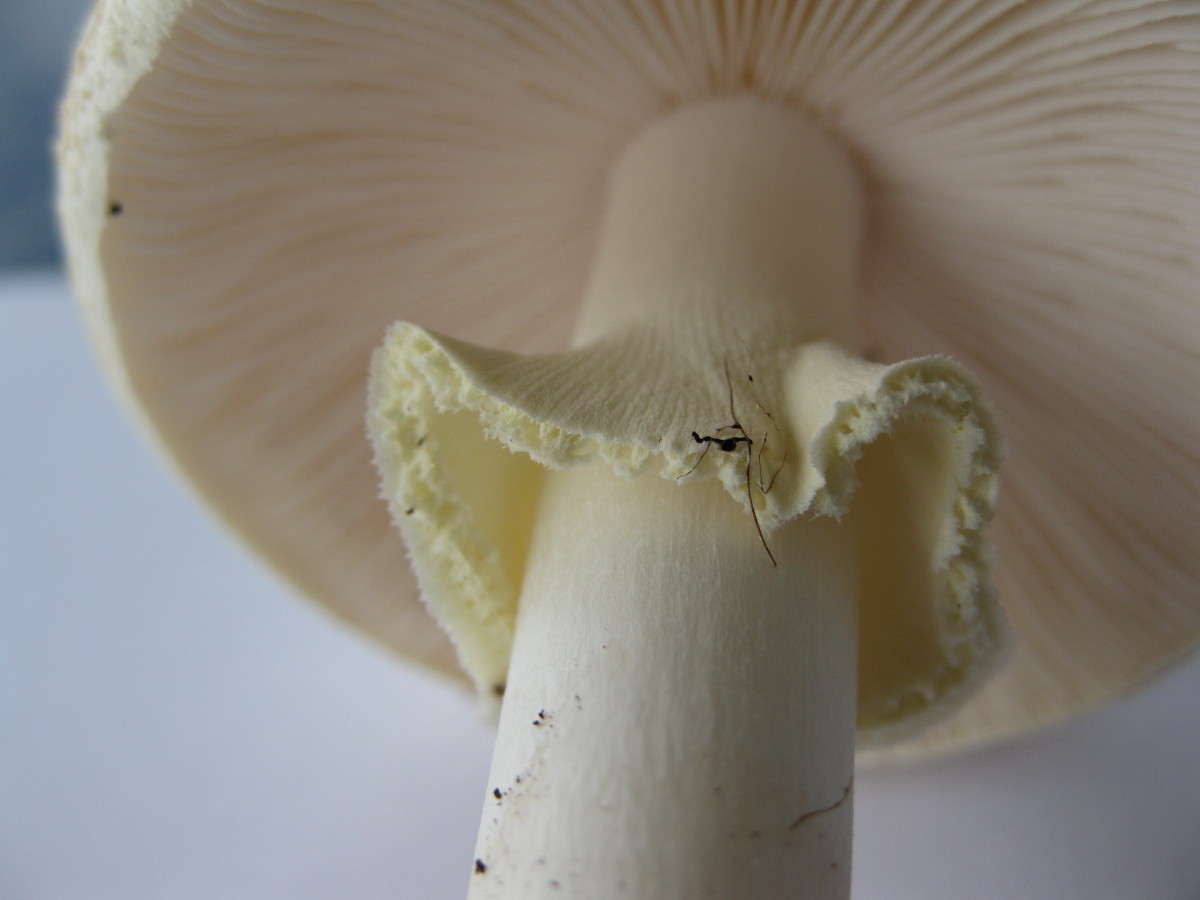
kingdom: Fungi
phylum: Basidiomycota
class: Agaricomycetes
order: Agaricales
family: Amanitaceae
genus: Amanita
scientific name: Amanita citrina
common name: kugleknoldet fluesvamp
